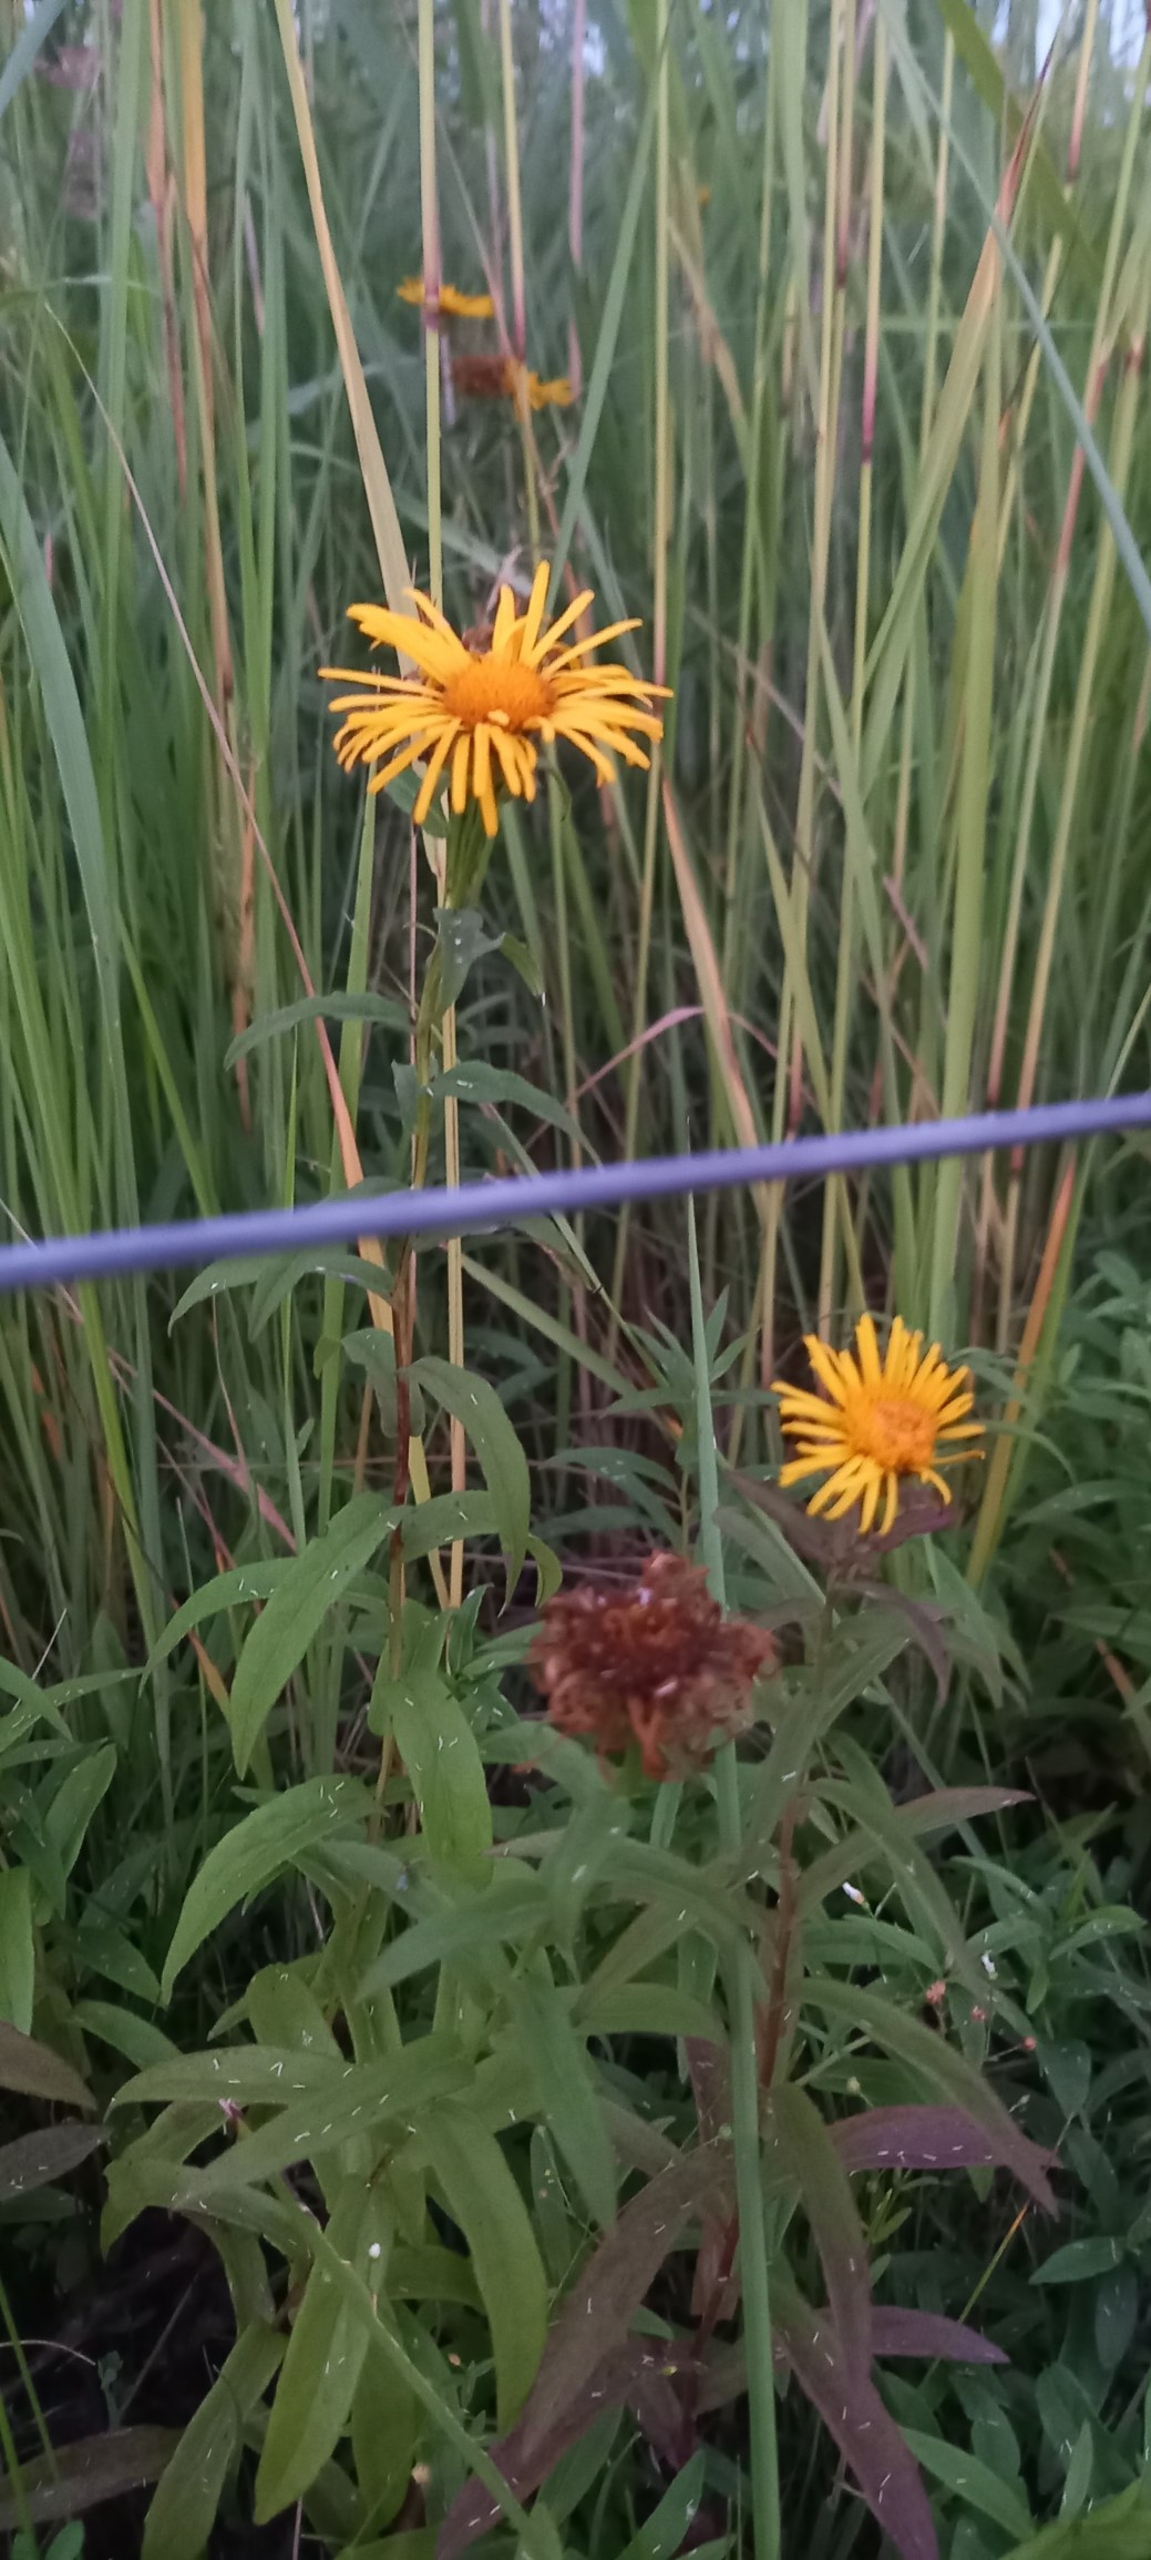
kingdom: Plantae
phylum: Tracheophyta
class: Magnoliopsida
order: Asterales
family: Asteraceae
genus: Pentanema
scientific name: Pentanema salicinum
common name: Pile-alant
